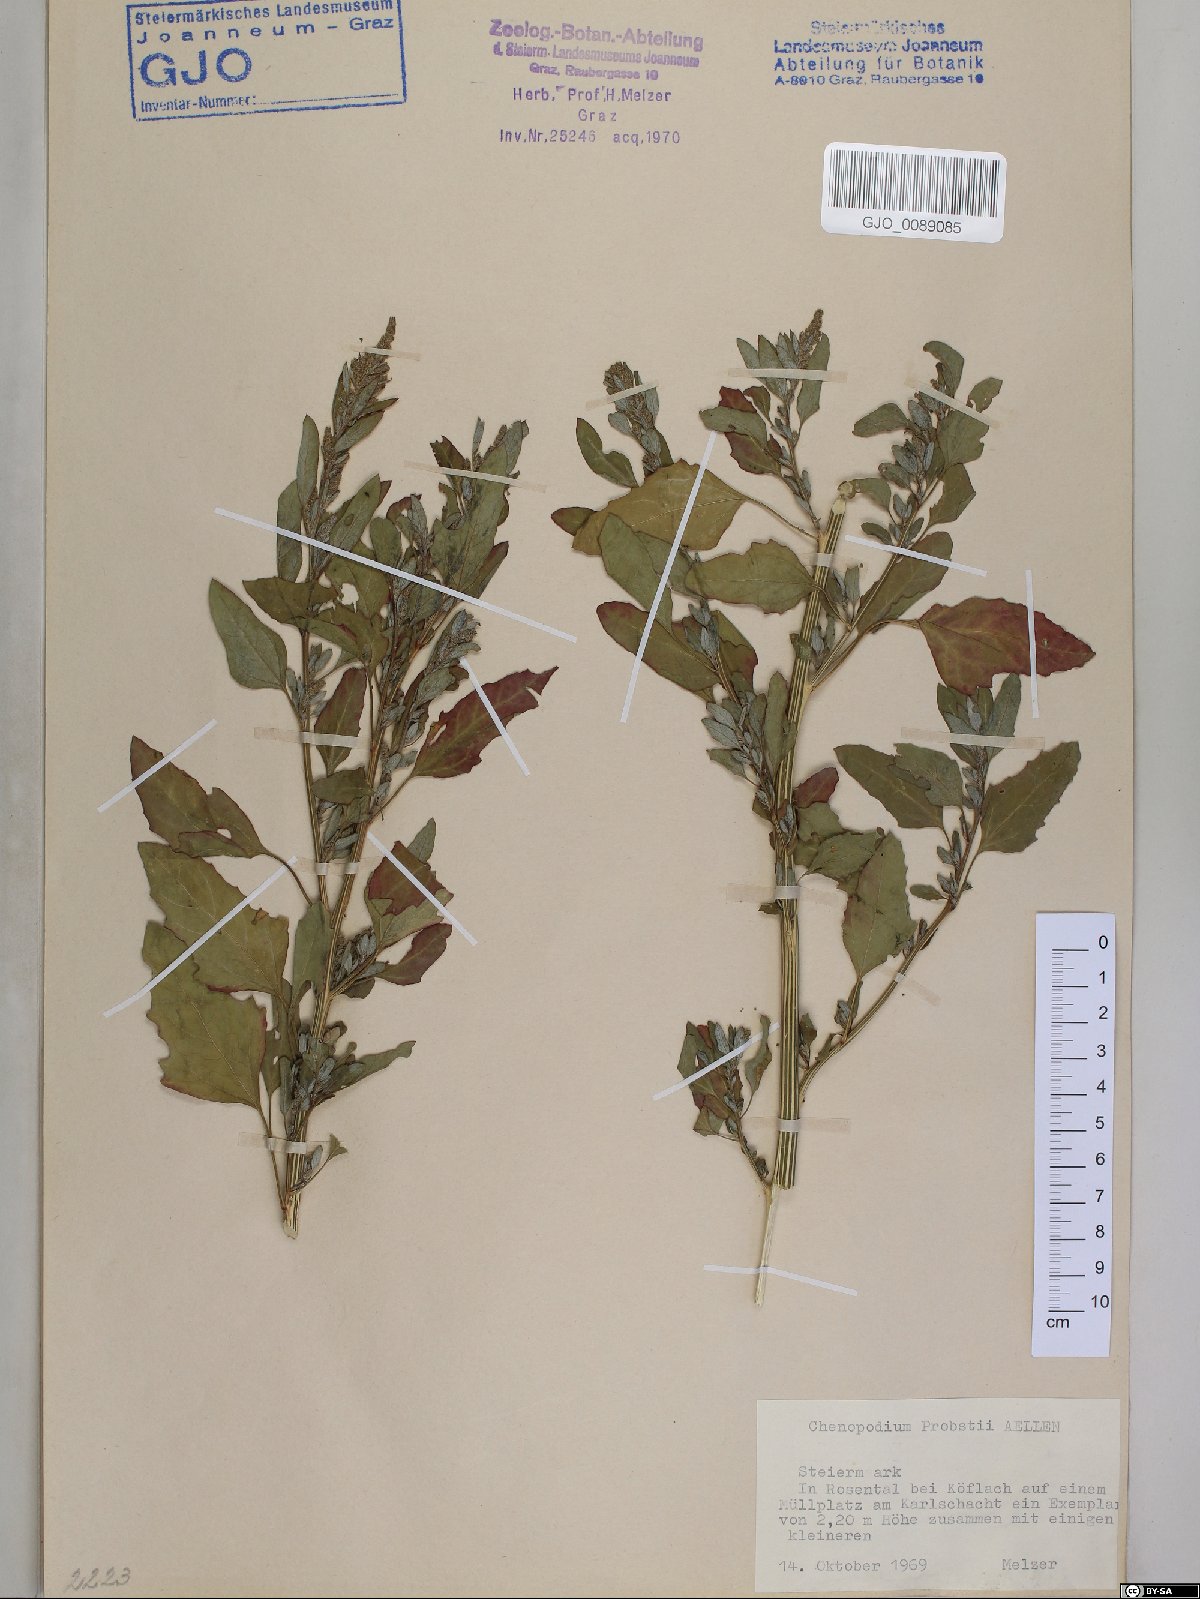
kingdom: Plantae
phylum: Tracheophyta
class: Magnoliopsida
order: Caryophyllales
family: Amaranthaceae
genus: Chenopodium
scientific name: Chenopodium probstii
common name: Probst's goosefoot
